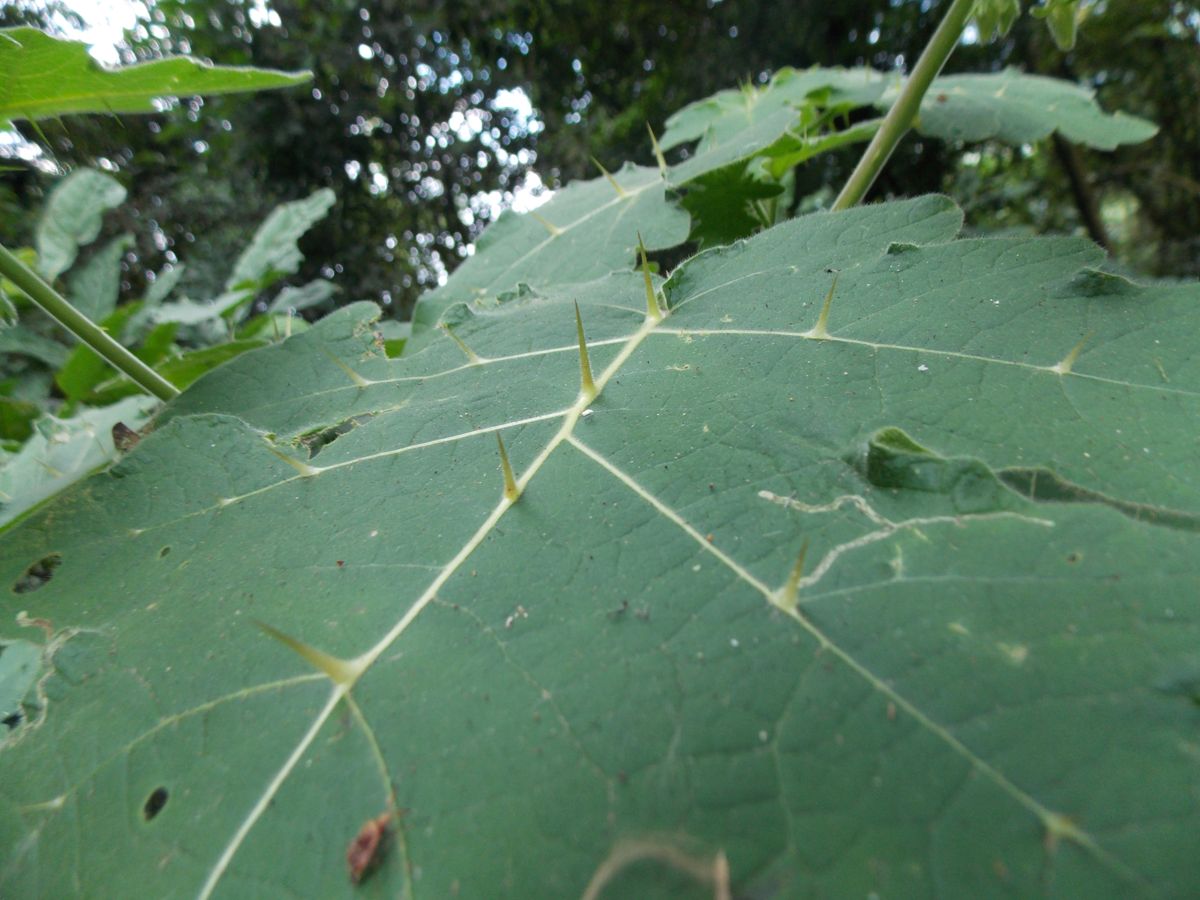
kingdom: Plantae
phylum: Tracheophyta
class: Magnoliopsida
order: Solanales
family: Solanaceae
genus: Solanum
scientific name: Solanum myriacanthum
